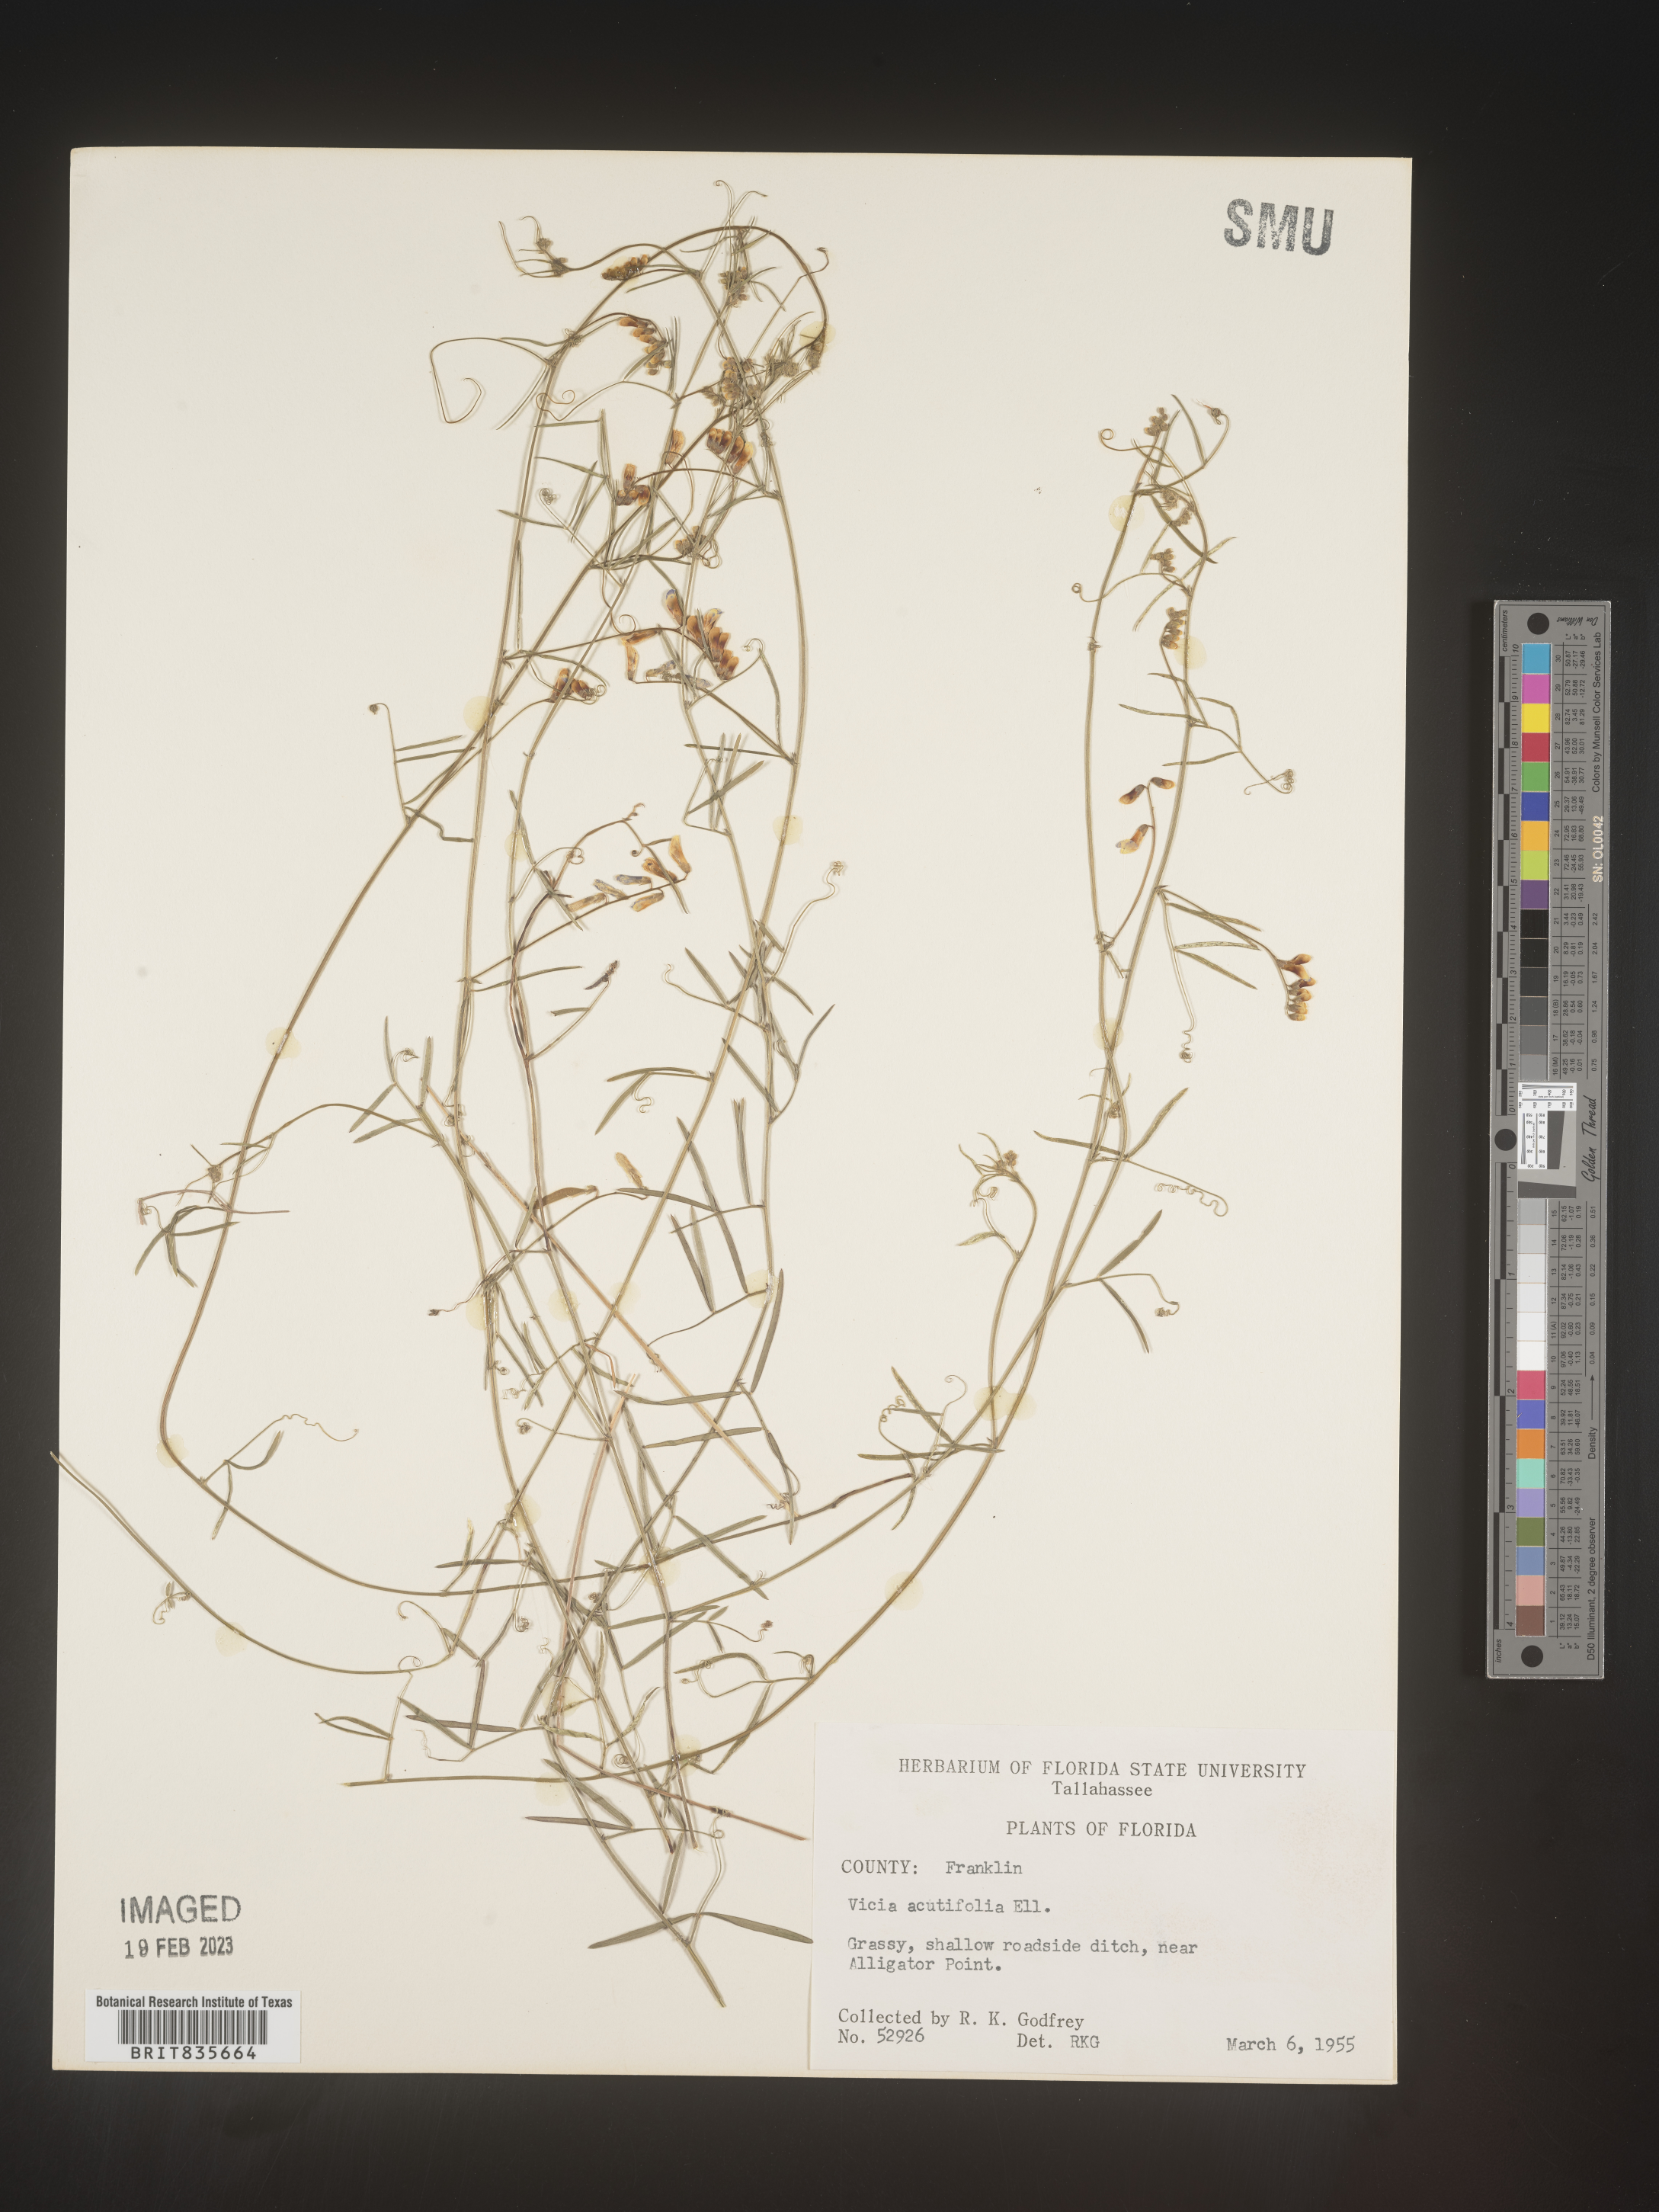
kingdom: Plantae
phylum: Tracheophyta
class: Magnoliopsida
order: Fabales
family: Fabaceae
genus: Vicia
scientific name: Vicia acutifolia
